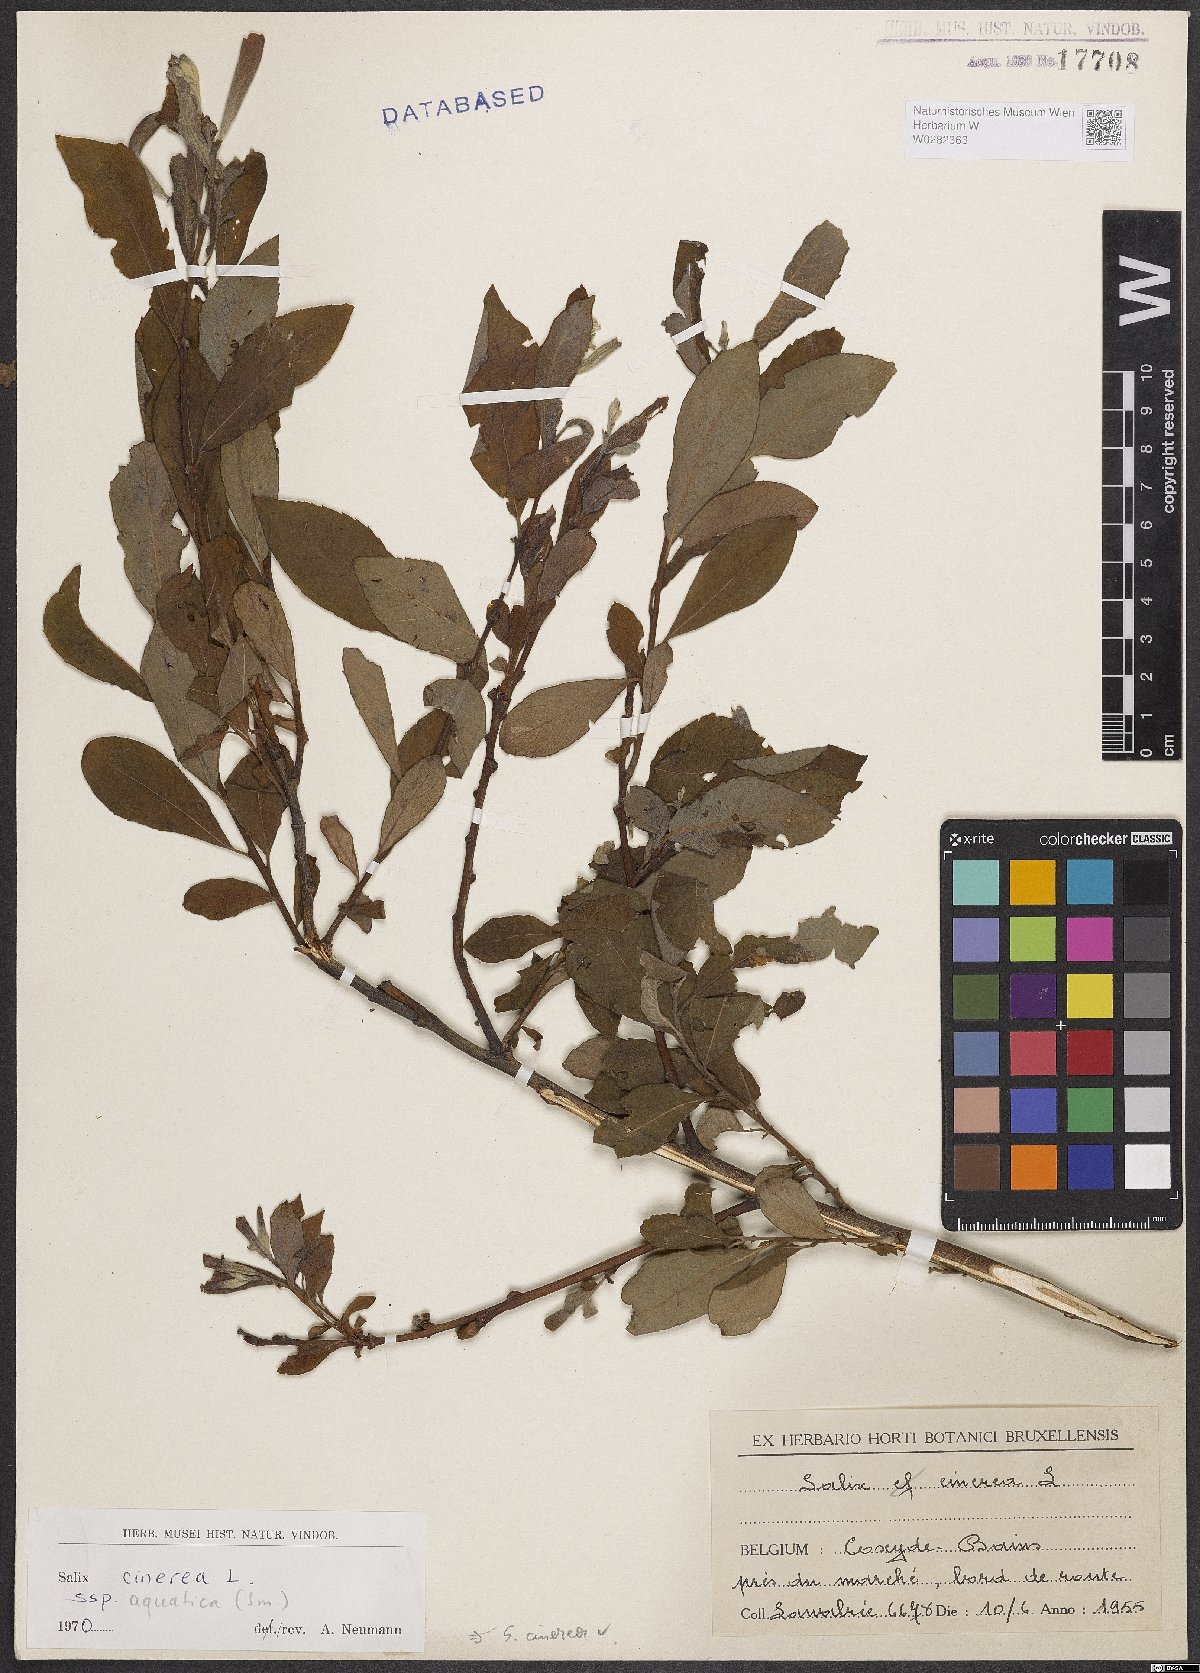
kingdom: Plantae
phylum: Tracheophyta
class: Magnoliopsida
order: Malpighiales
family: Salicaceae
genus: Salix
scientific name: Salix cinerea
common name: Common sallow
